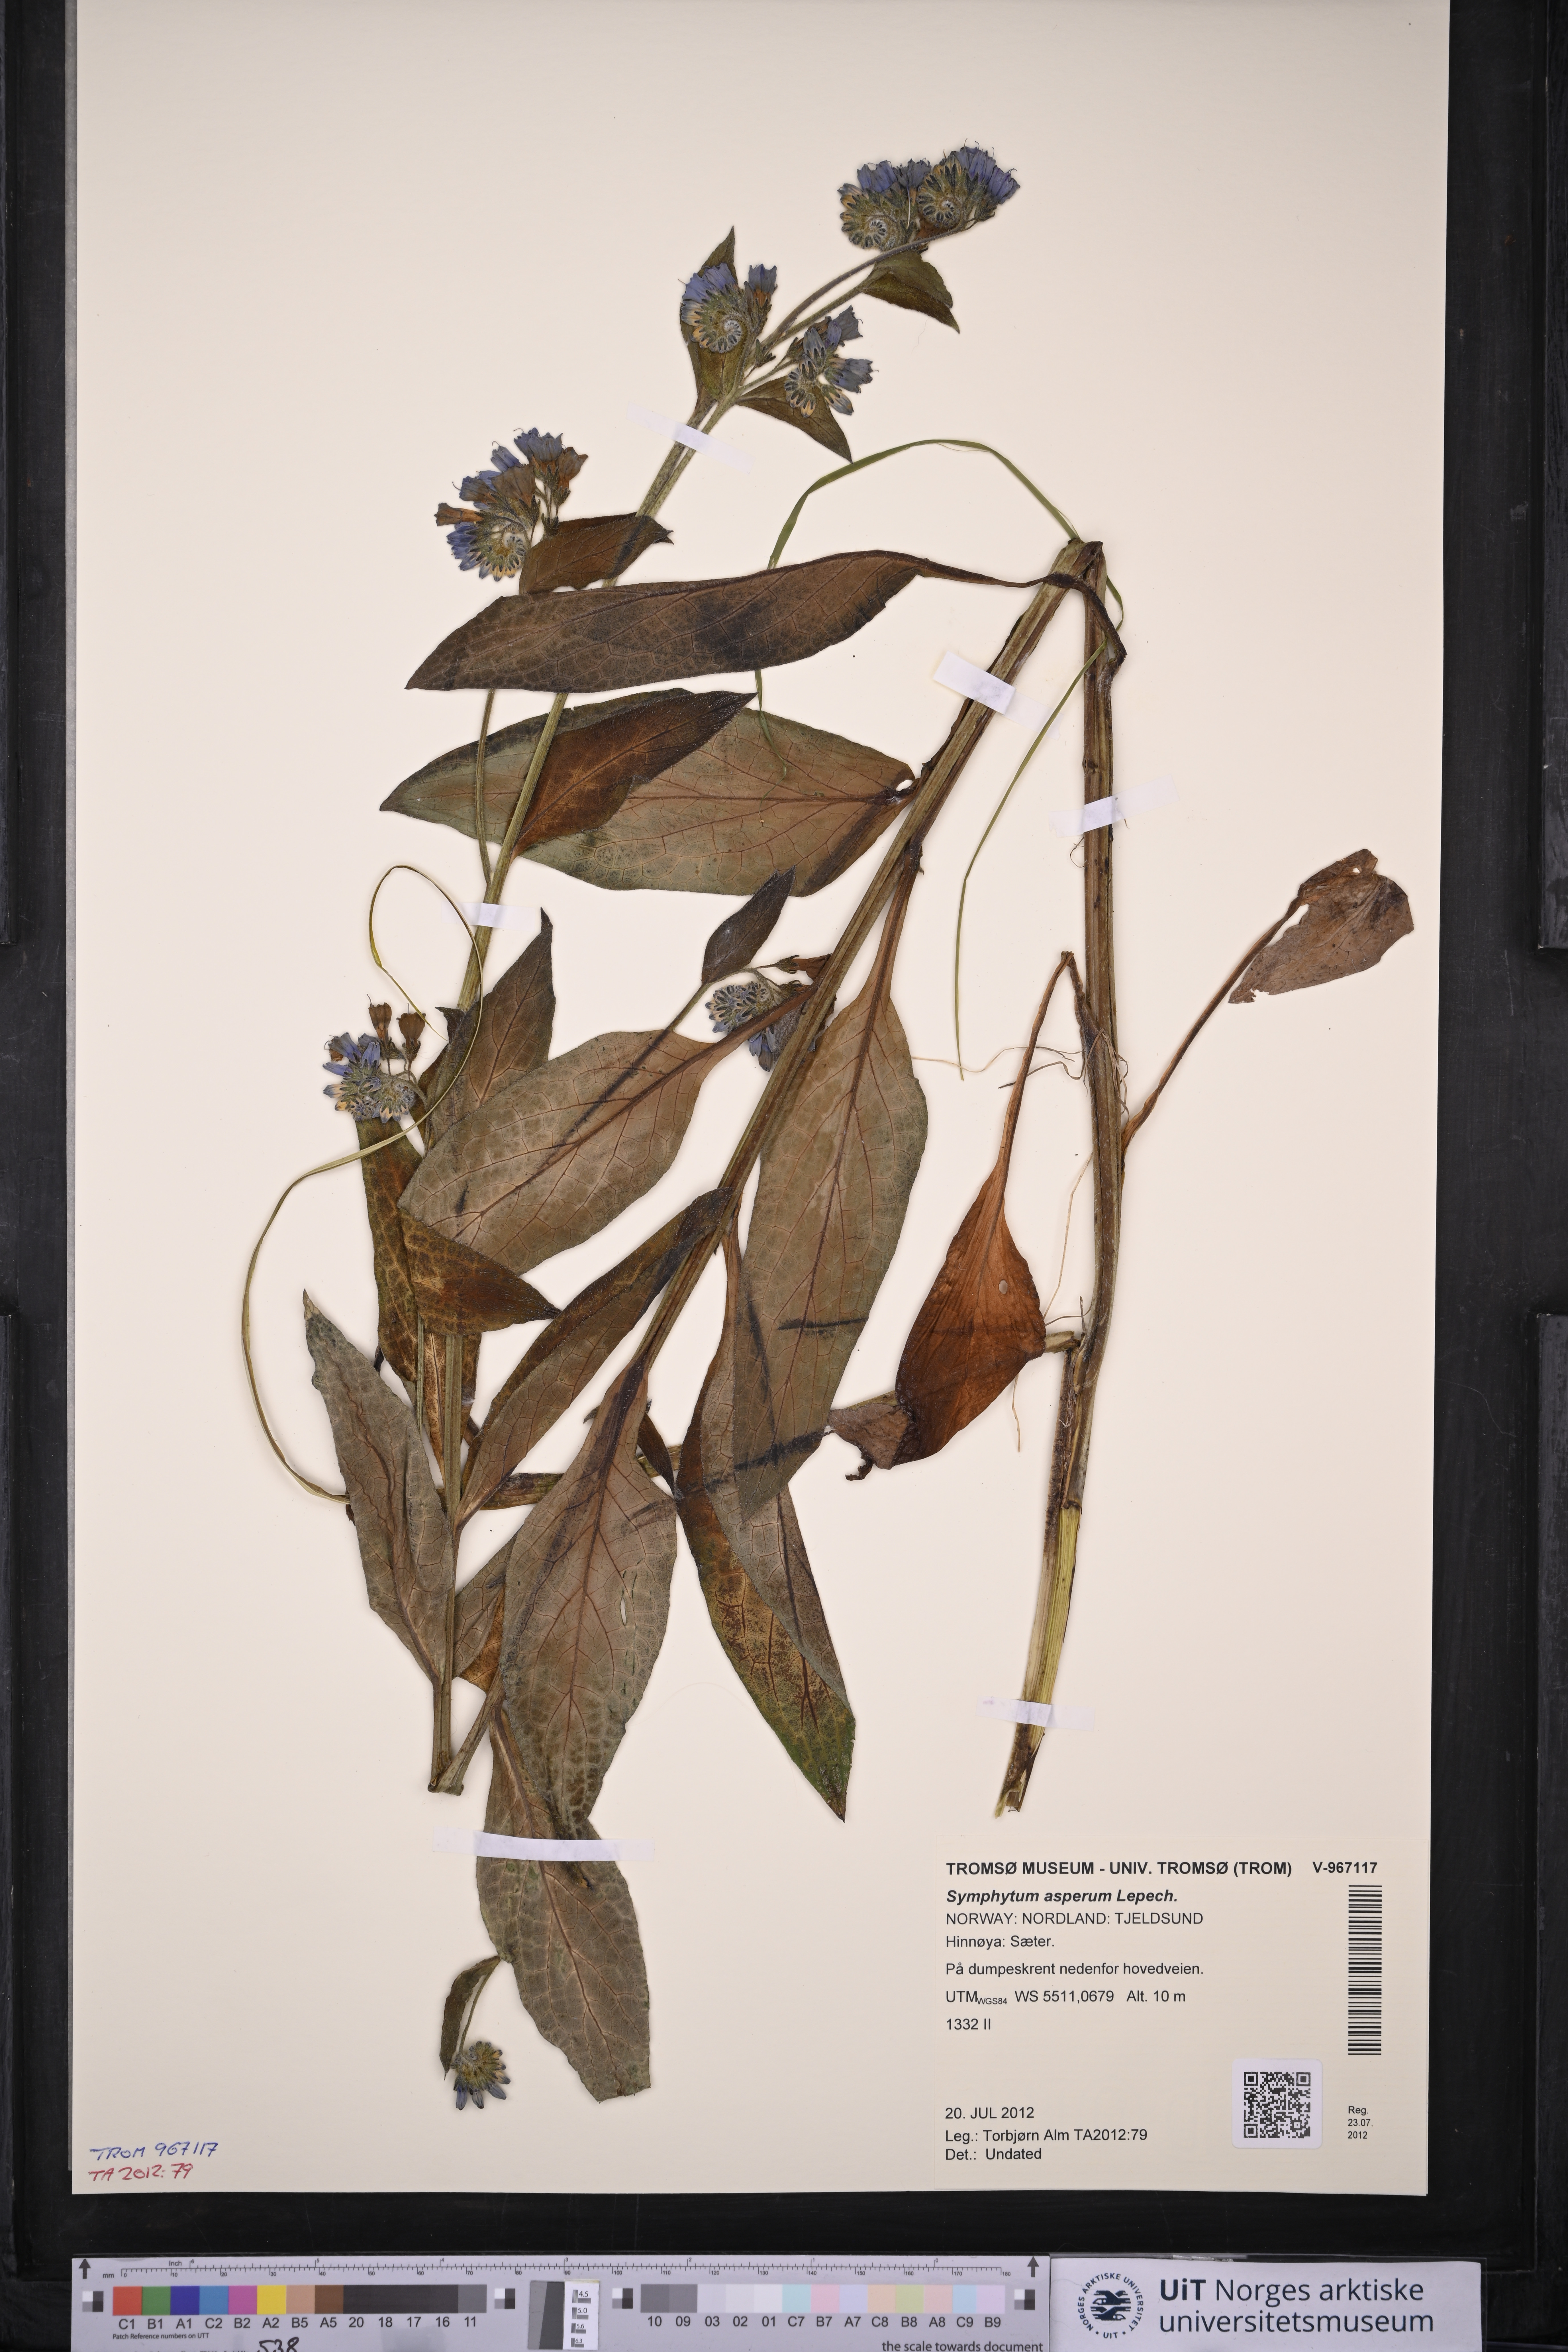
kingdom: Plantae
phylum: Tracheophyta
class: Magnoliopsida
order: Boraginales
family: Boraginaceae
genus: Symphytum
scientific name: Symphytum asperum
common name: Prickly comfrey
